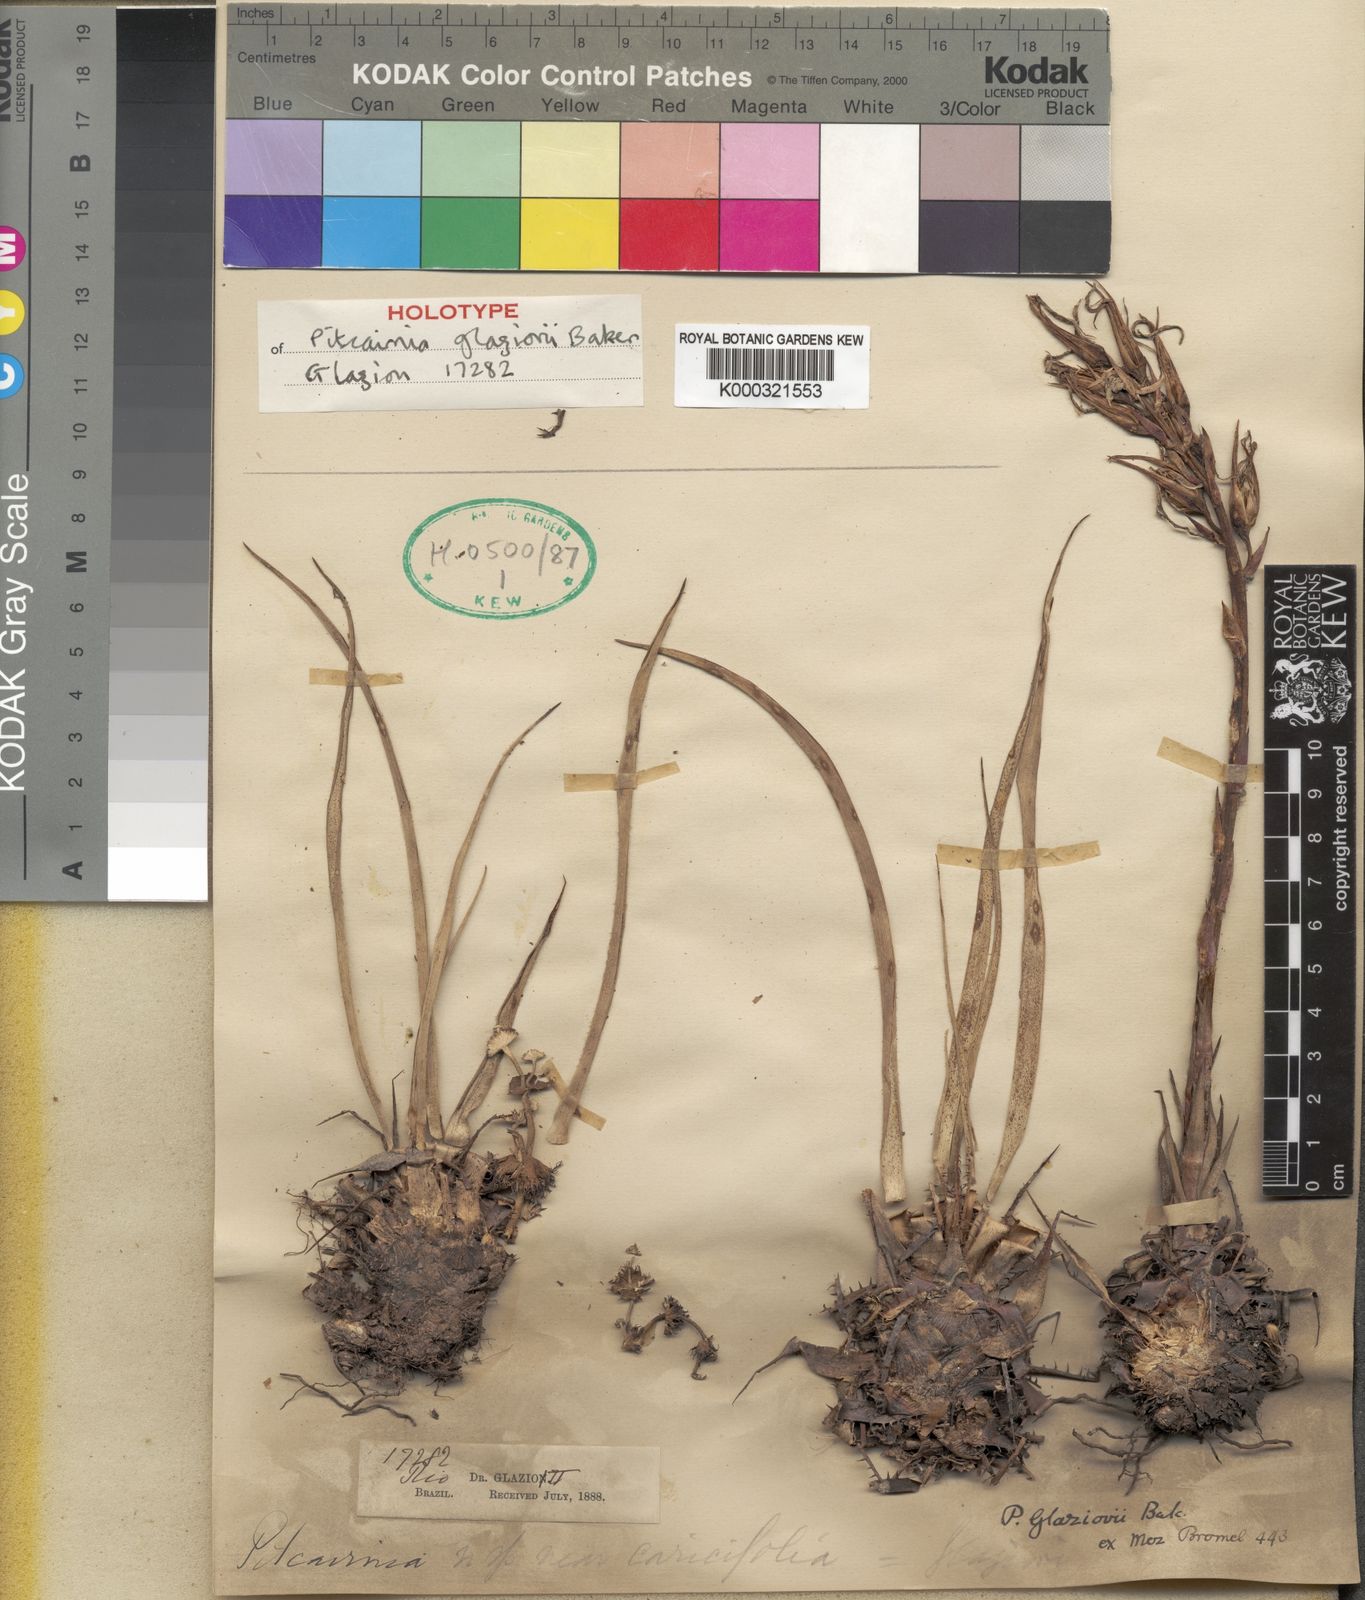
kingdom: Plantae
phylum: Tracheophyta
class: Liliopsida
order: Poales
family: Bromeliaceae
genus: Pitcairnia
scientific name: Pitcairnia glaziovii
